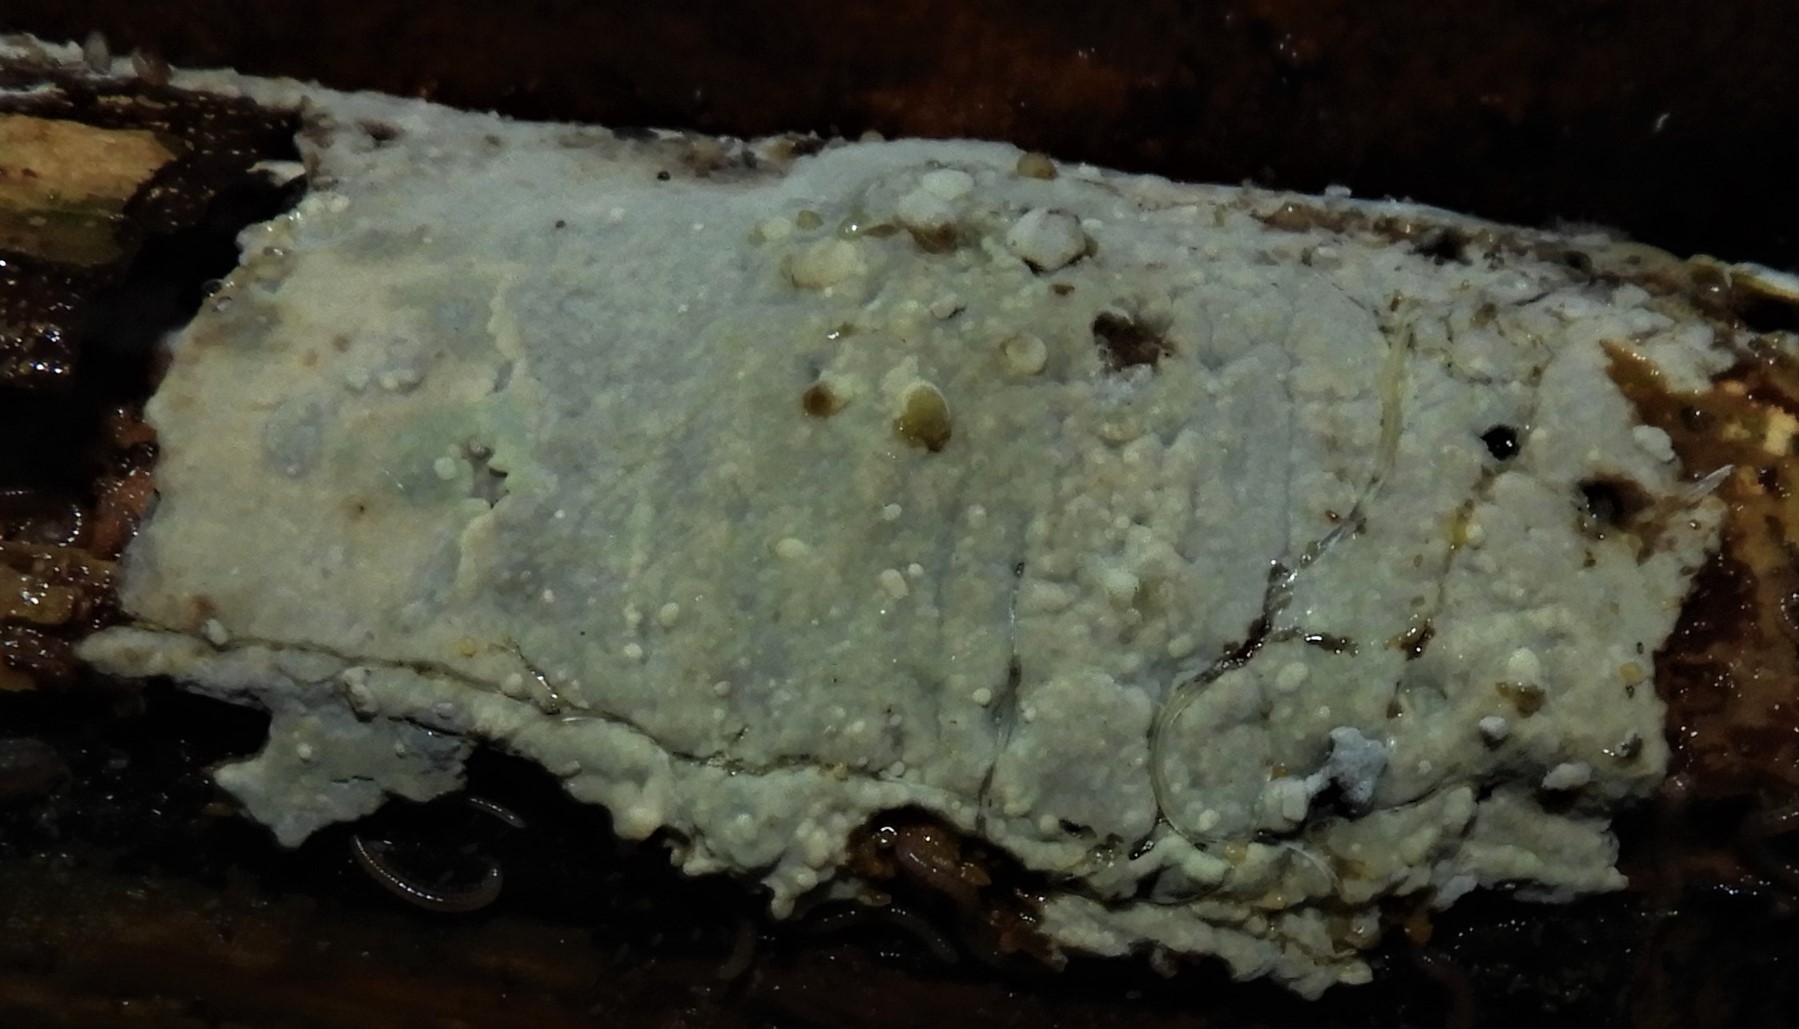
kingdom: Fungi
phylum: Basidiomycota
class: Agaricomycetes
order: Agaricales
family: Radulomycetaceae
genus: Radulomyces
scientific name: Radulomyces confluens
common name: glat naftalinskind
